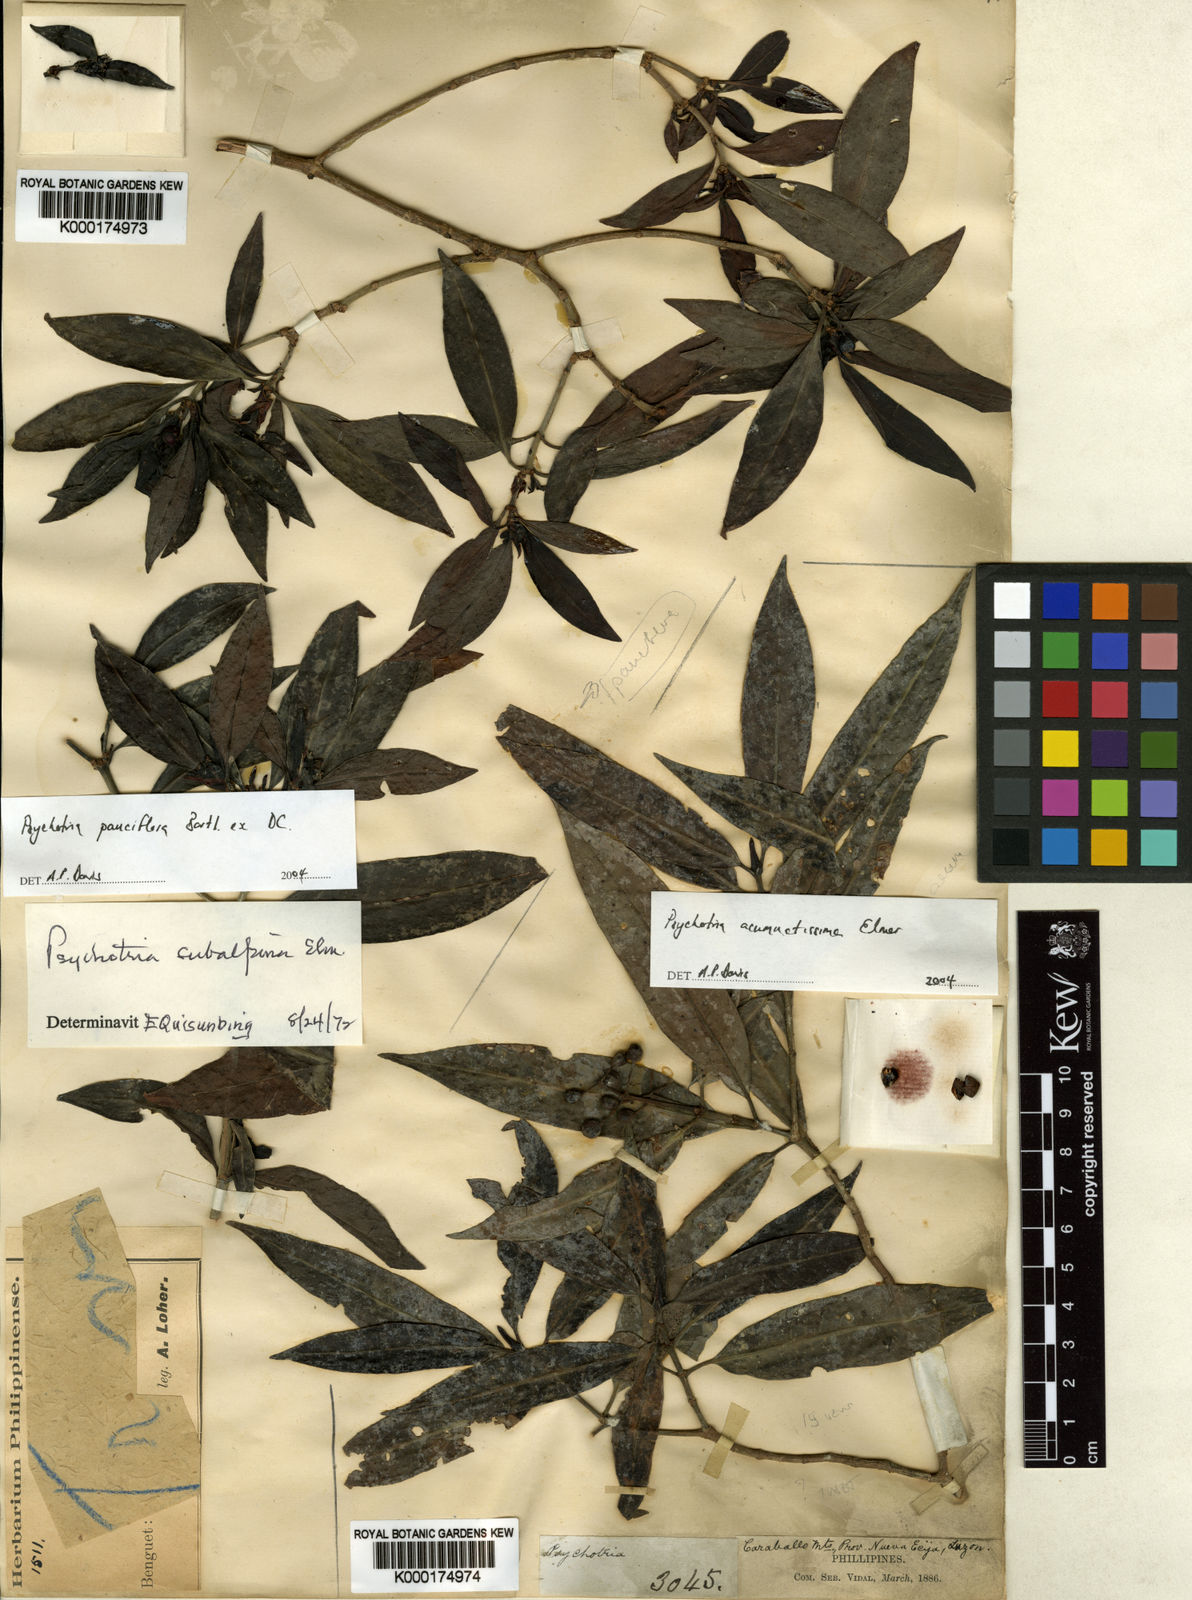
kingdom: Plantae
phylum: Tracheophyta
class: Magnoliopsida
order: Gentianales
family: Rubiaceae
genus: Psychotria
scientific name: Psychotria acuminatissima
